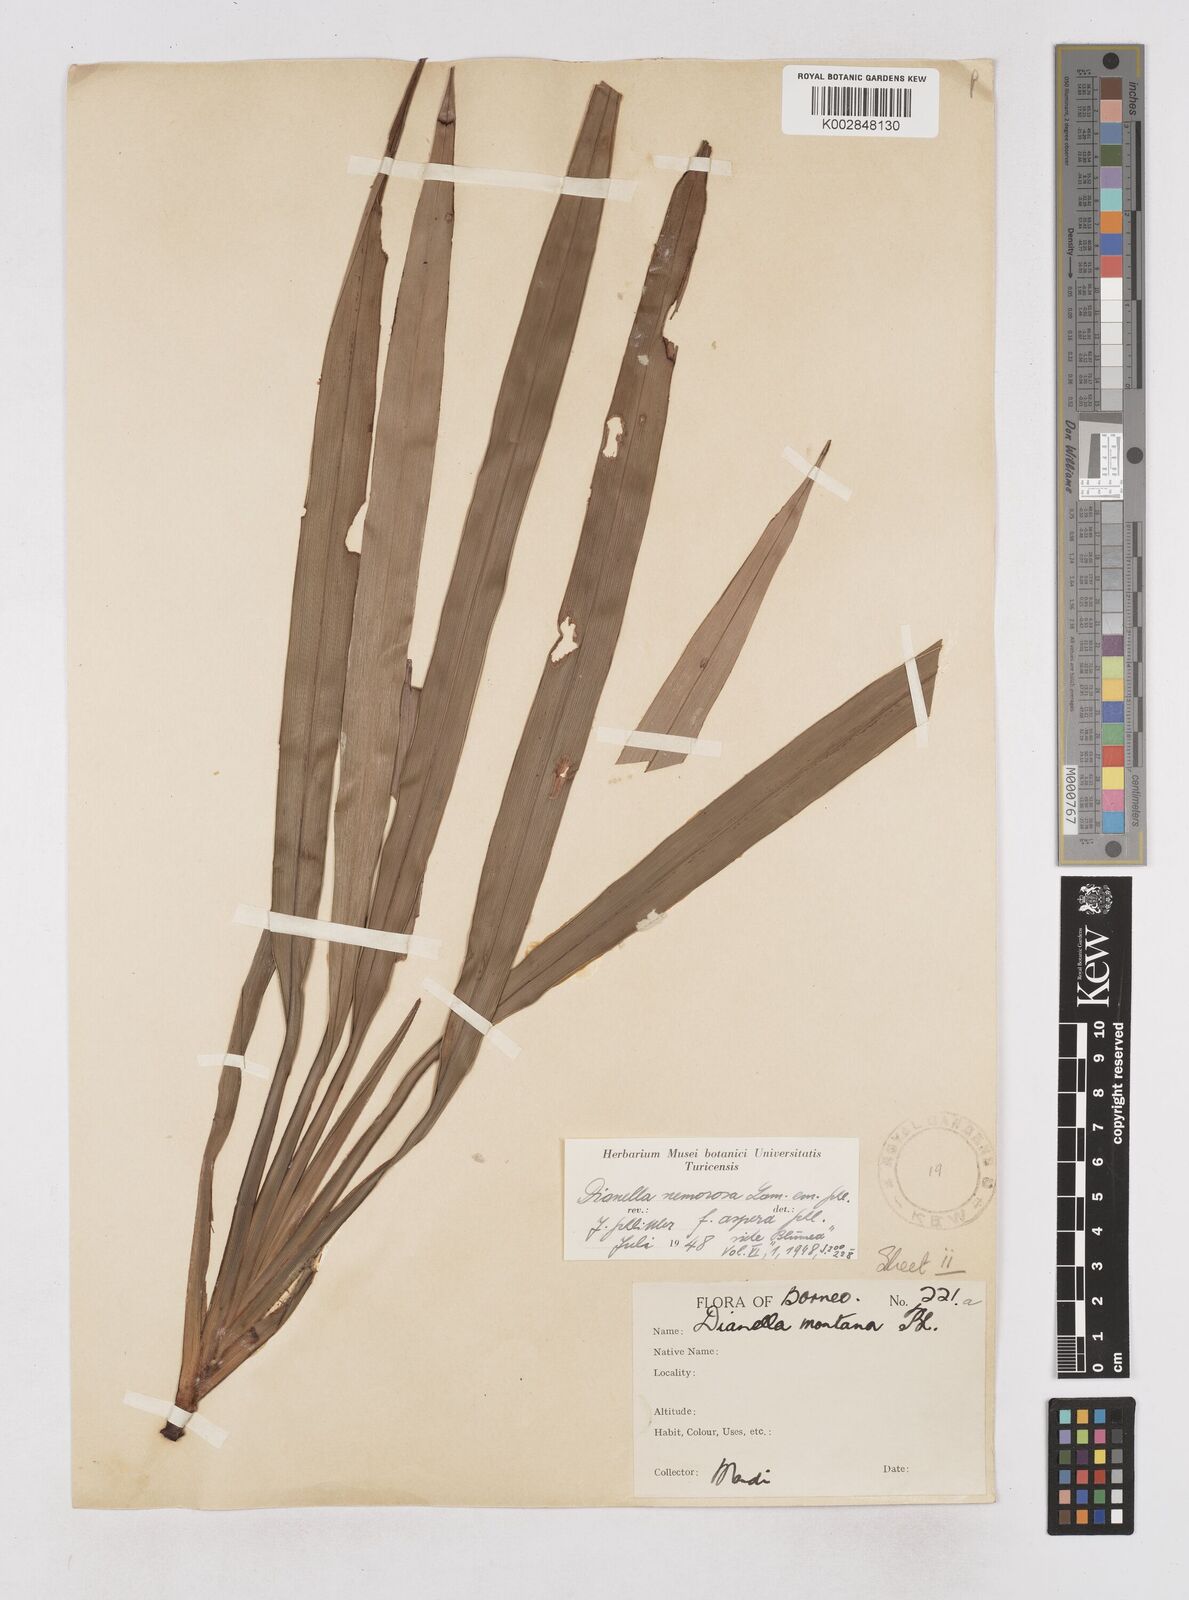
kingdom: Plantae
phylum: Tracheophyta
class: Liliopsida
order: Asparagales
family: Asphodelaceae
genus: Dianella
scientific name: Dianella ensifolia
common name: New zealand lilyplant
